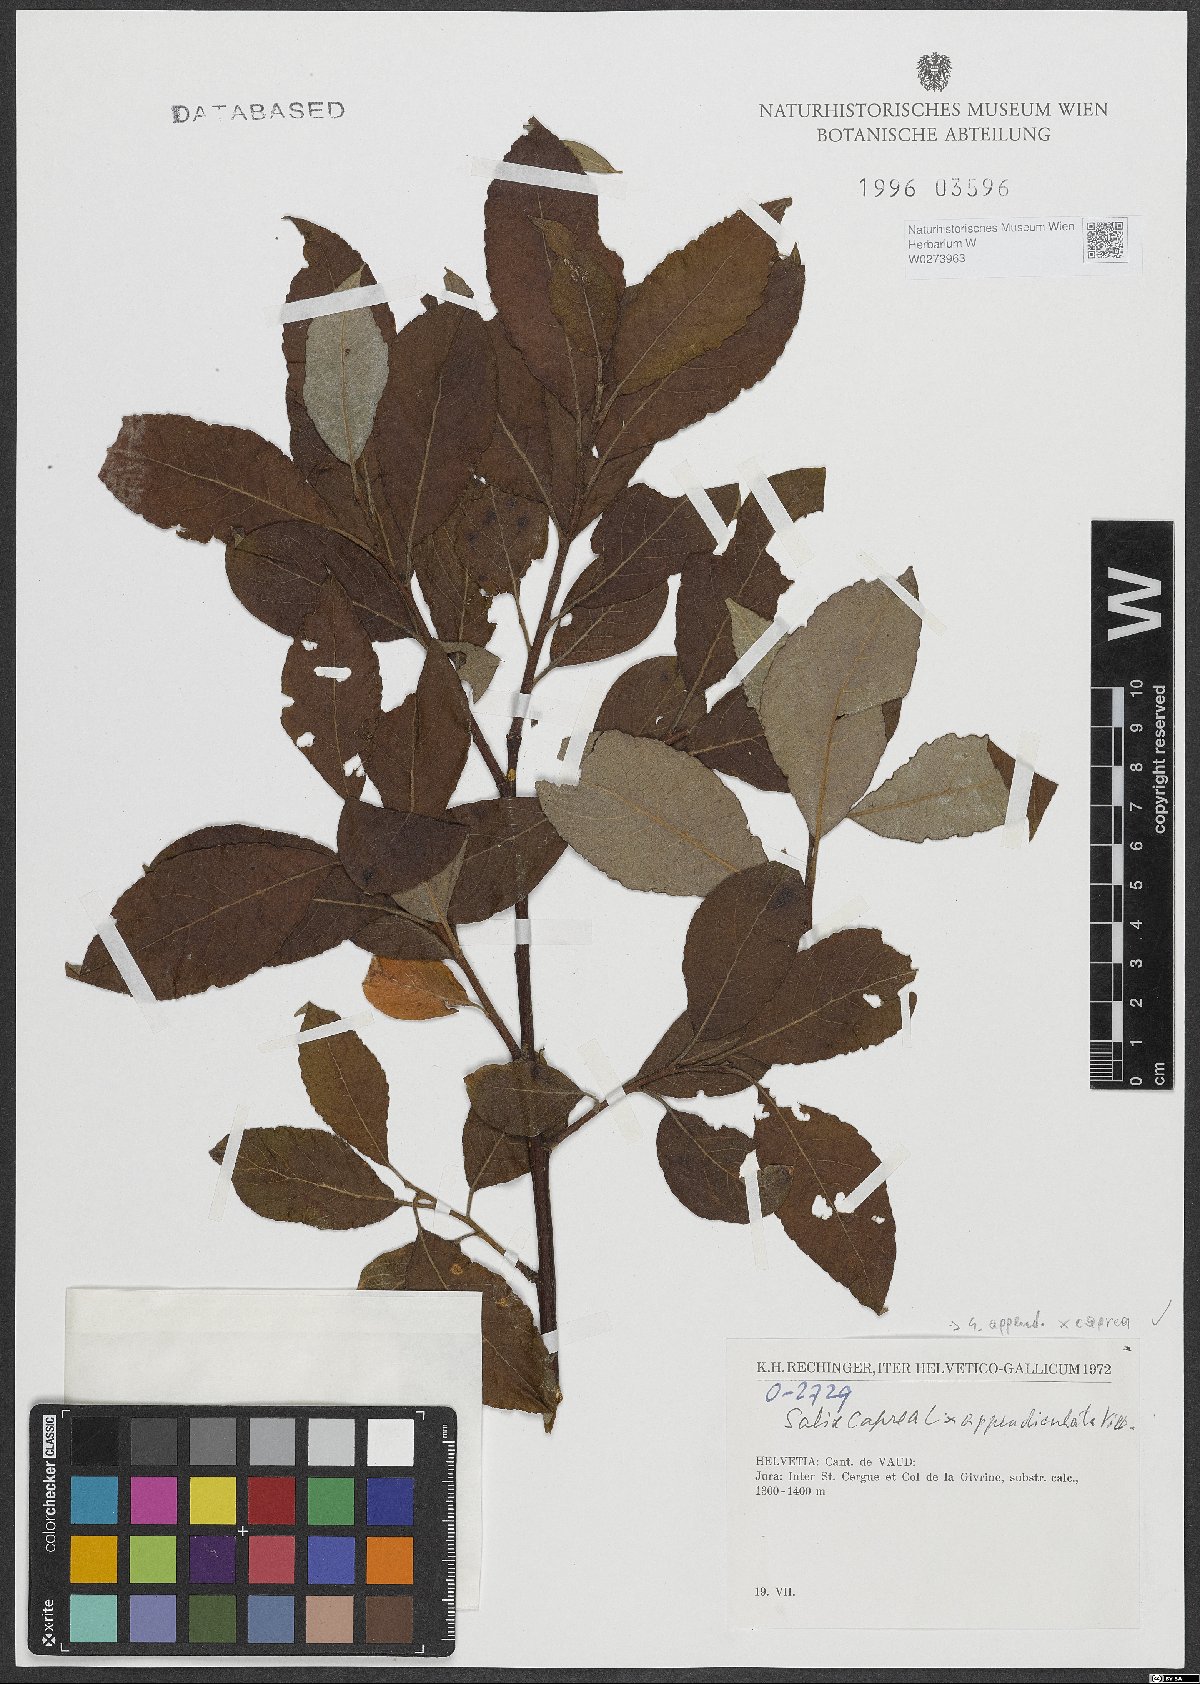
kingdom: Plantae
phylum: Tracheophyta
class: Magnoliopsida
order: Malpighiales
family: Salicaceae
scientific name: Salicaceae
